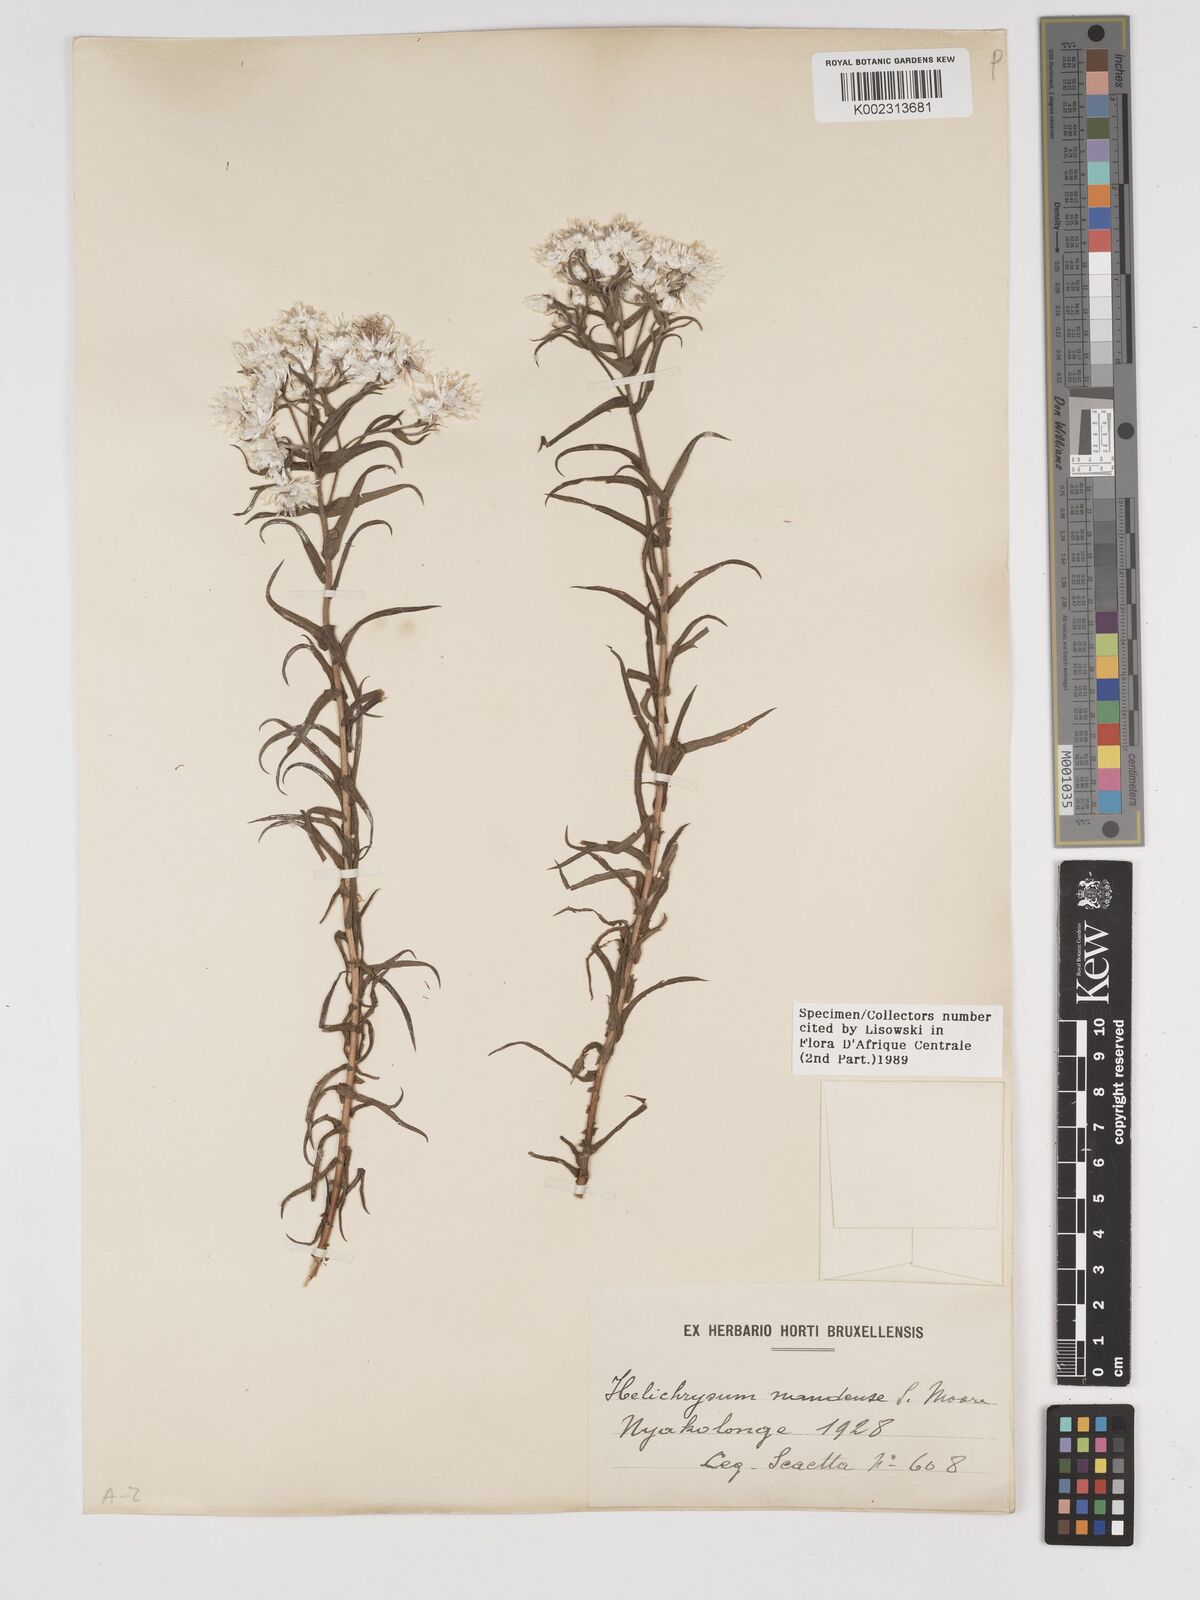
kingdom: Plantae
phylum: Tracheophyta
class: Magnoliopsida
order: Asterales
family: Asteraceae
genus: Helichrysum
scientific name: Helichrysum argyranthum
